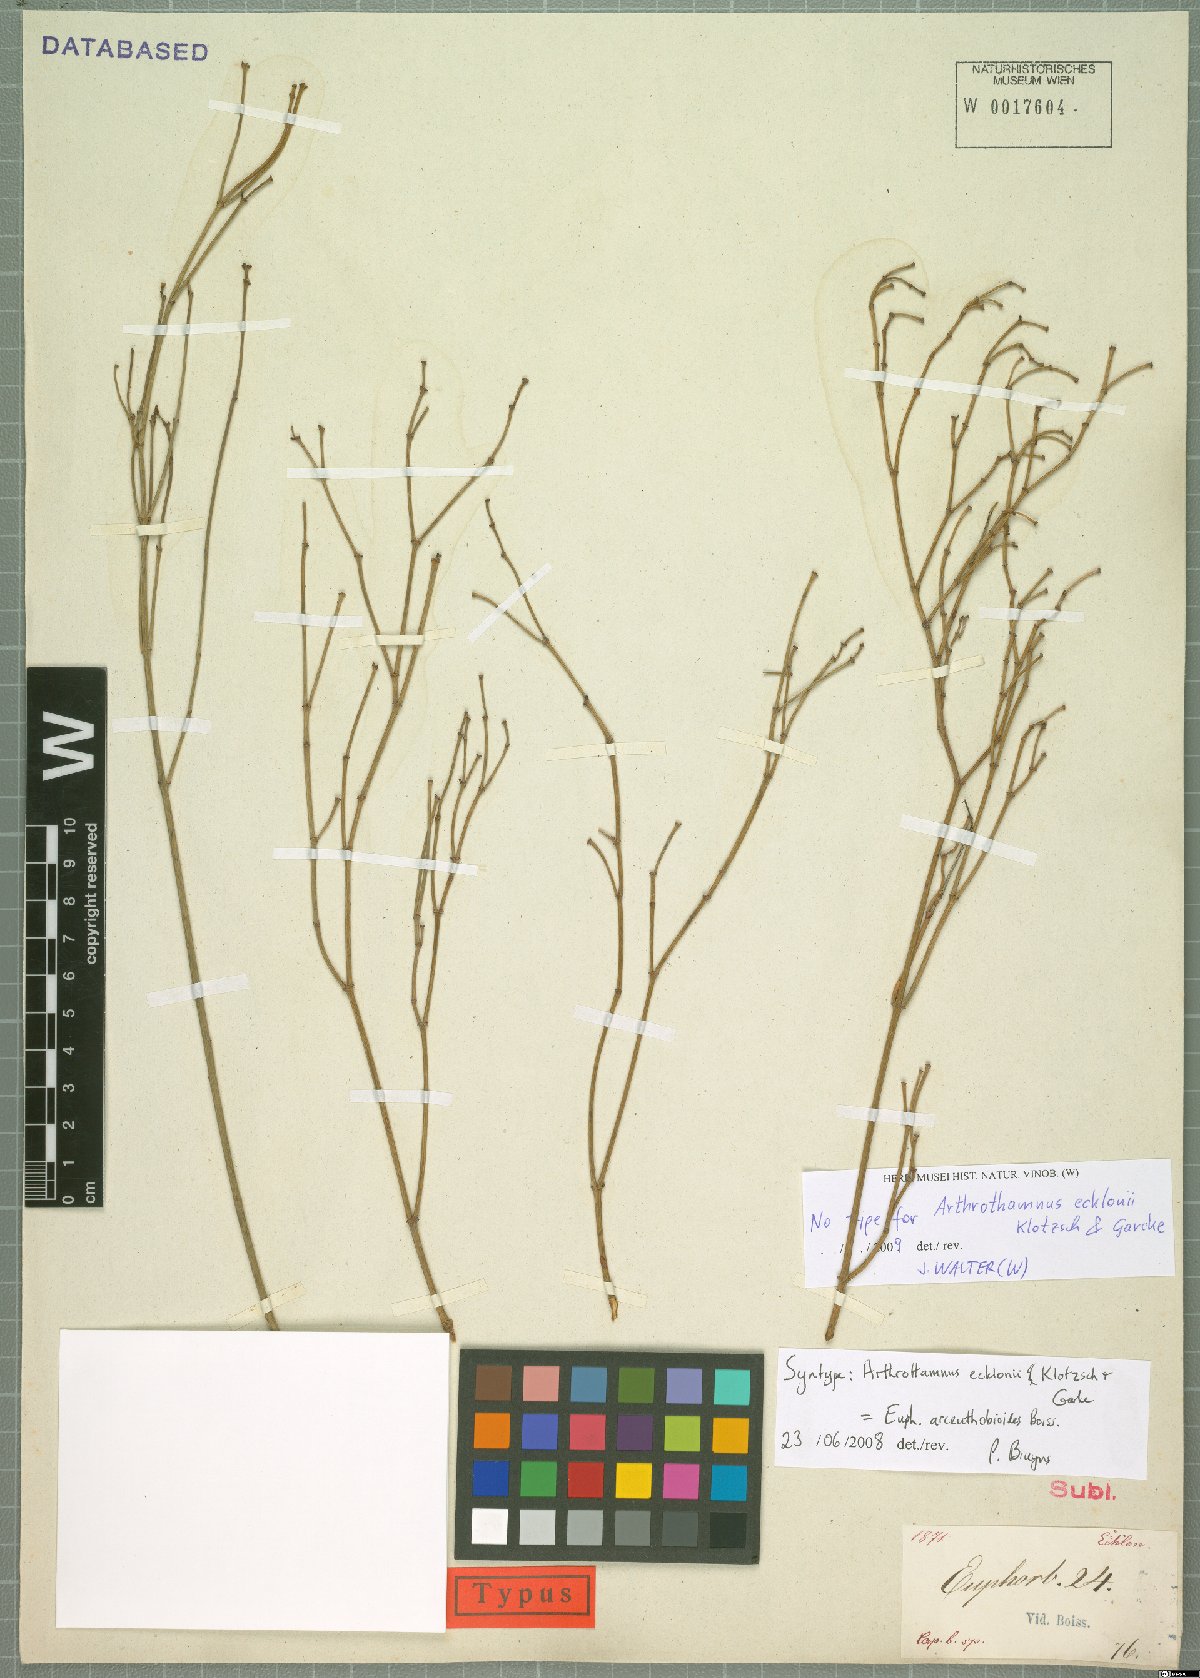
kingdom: Plantae
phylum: Tracheophyta
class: Magnoliopsida
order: Malpighiales
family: Euphorbiaceae
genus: Euphorbia
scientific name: Euphorbia arceuthobioides
